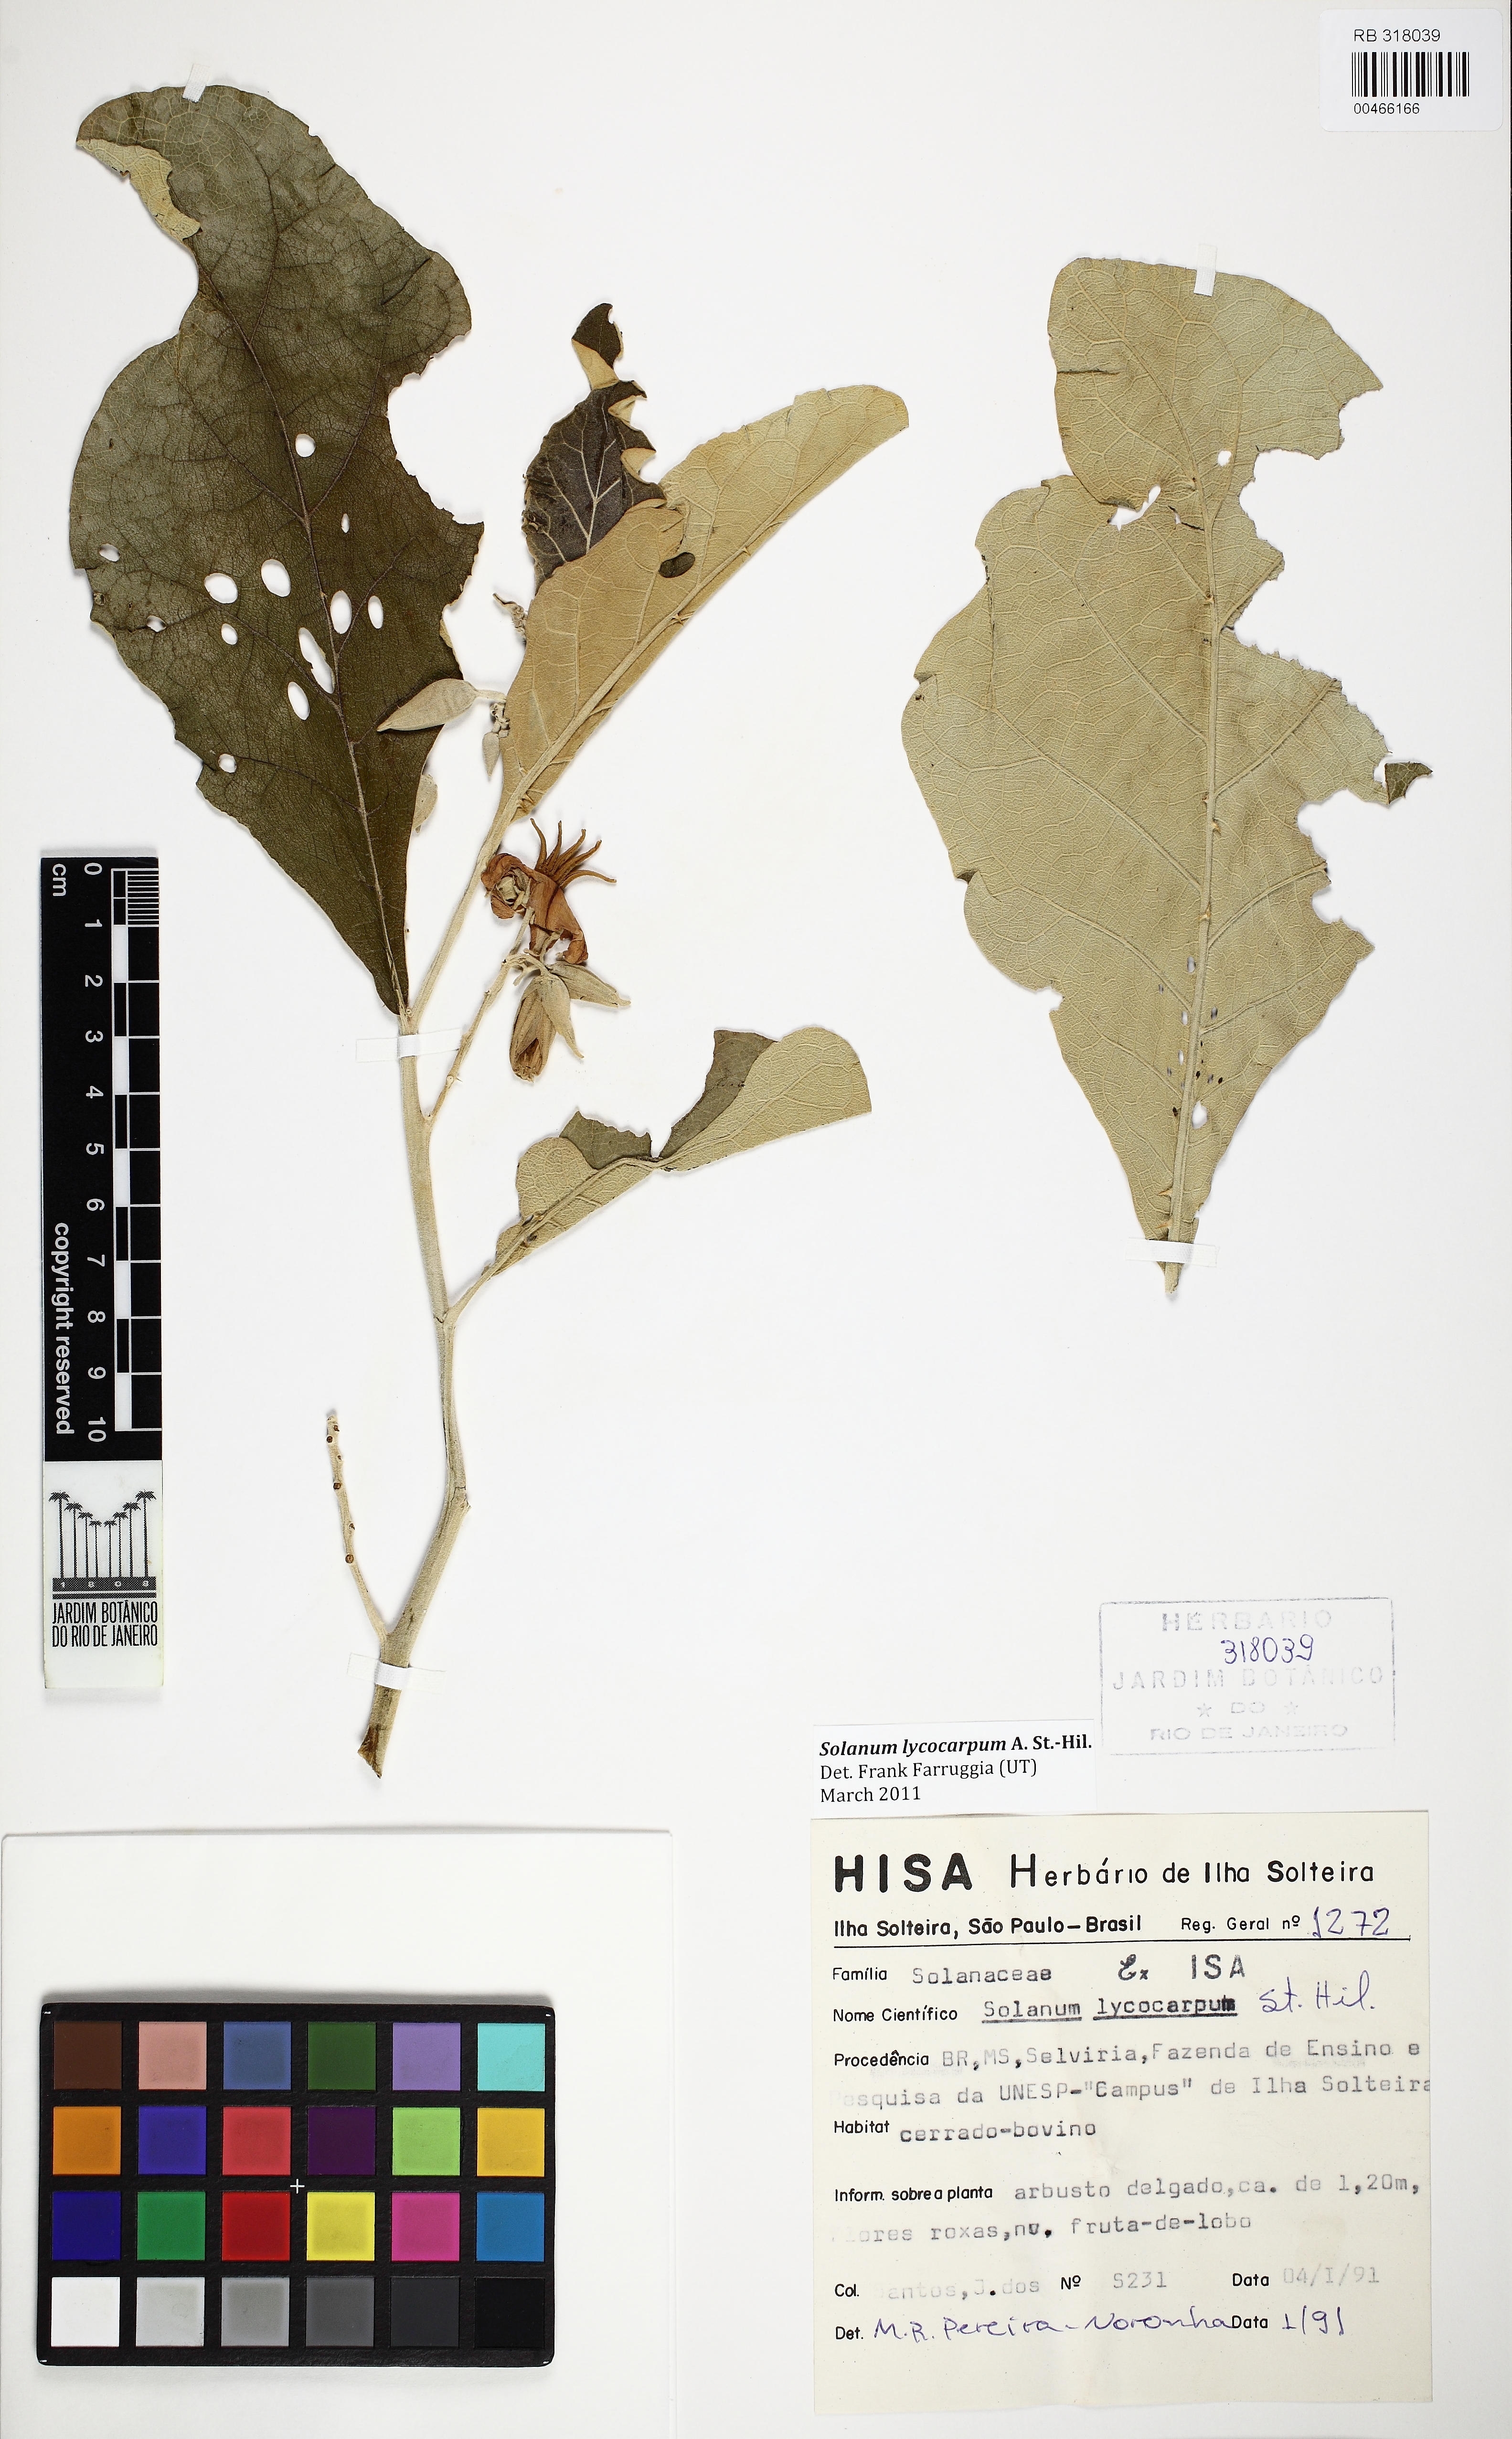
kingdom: Plantae
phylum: Tracheophyta
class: Magnoliopsida
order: Solanales
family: Solanaceae
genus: Solanum
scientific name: Solanum lycocarpum
